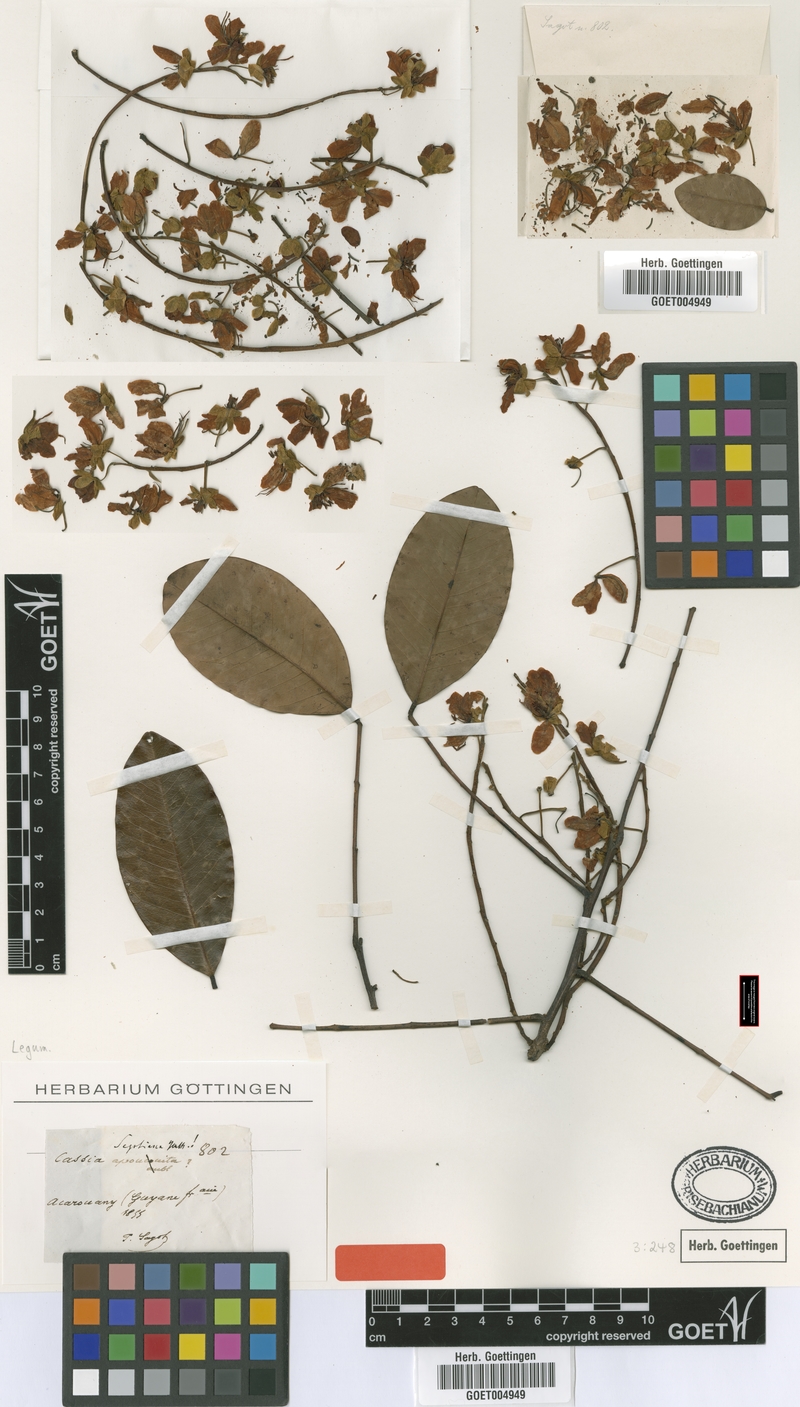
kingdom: Plantae
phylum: Tracheophyta
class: Magnoliopsida
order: Fabales
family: Fabaceae
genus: Cassia
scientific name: Cassia spruceana
